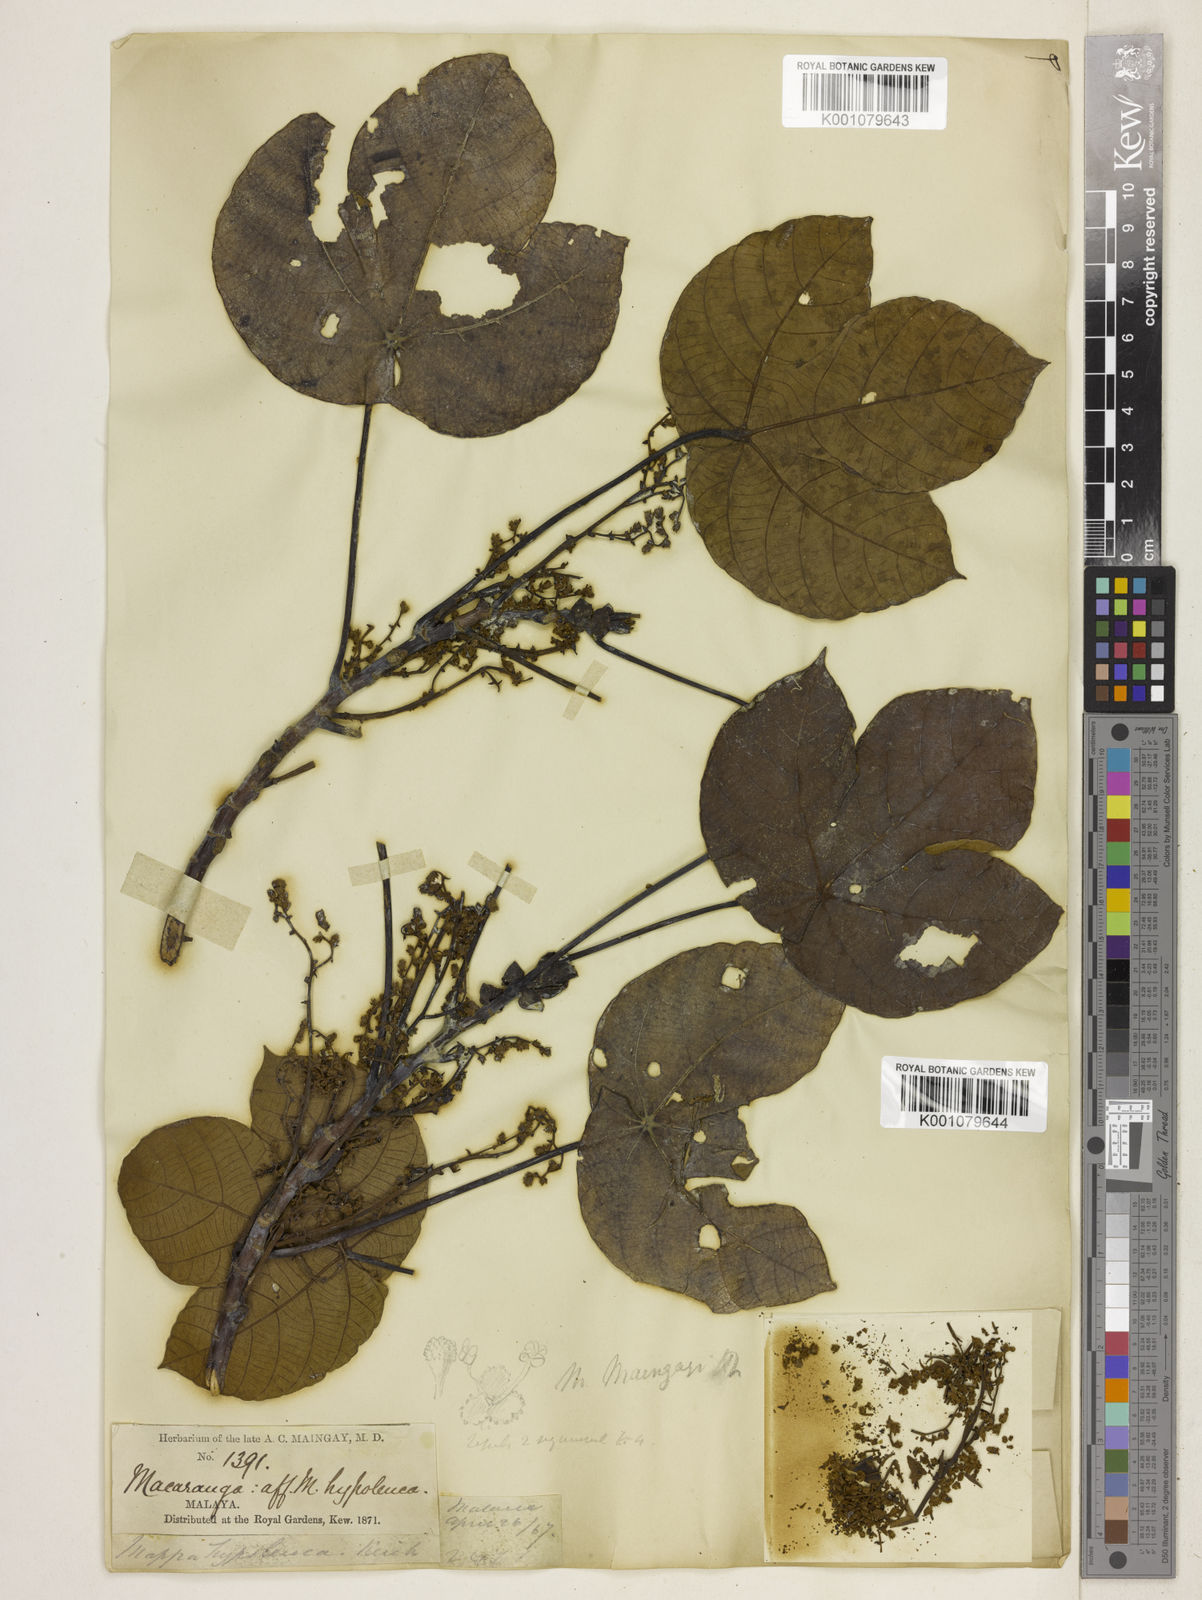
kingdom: Plantae
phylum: Tracheophyta
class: Magnoliopsida
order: Malpighiales
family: Euphorbiaceae
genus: Macaranga
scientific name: Macaranga pruinosa
